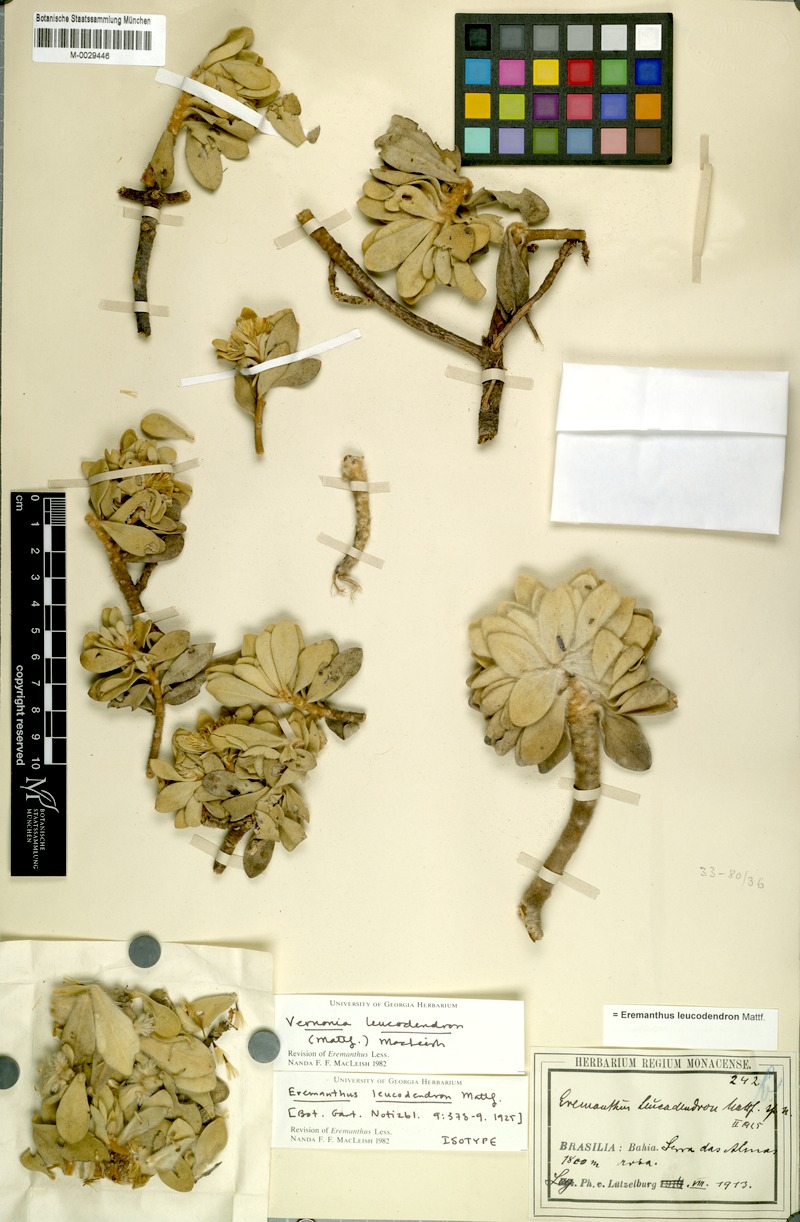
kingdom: Plantae
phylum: Tracheophyta
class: Magnoliopsida
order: Asterales
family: Asteraceae
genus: Lychnophorella
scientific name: Lychnophorella leucodendron
